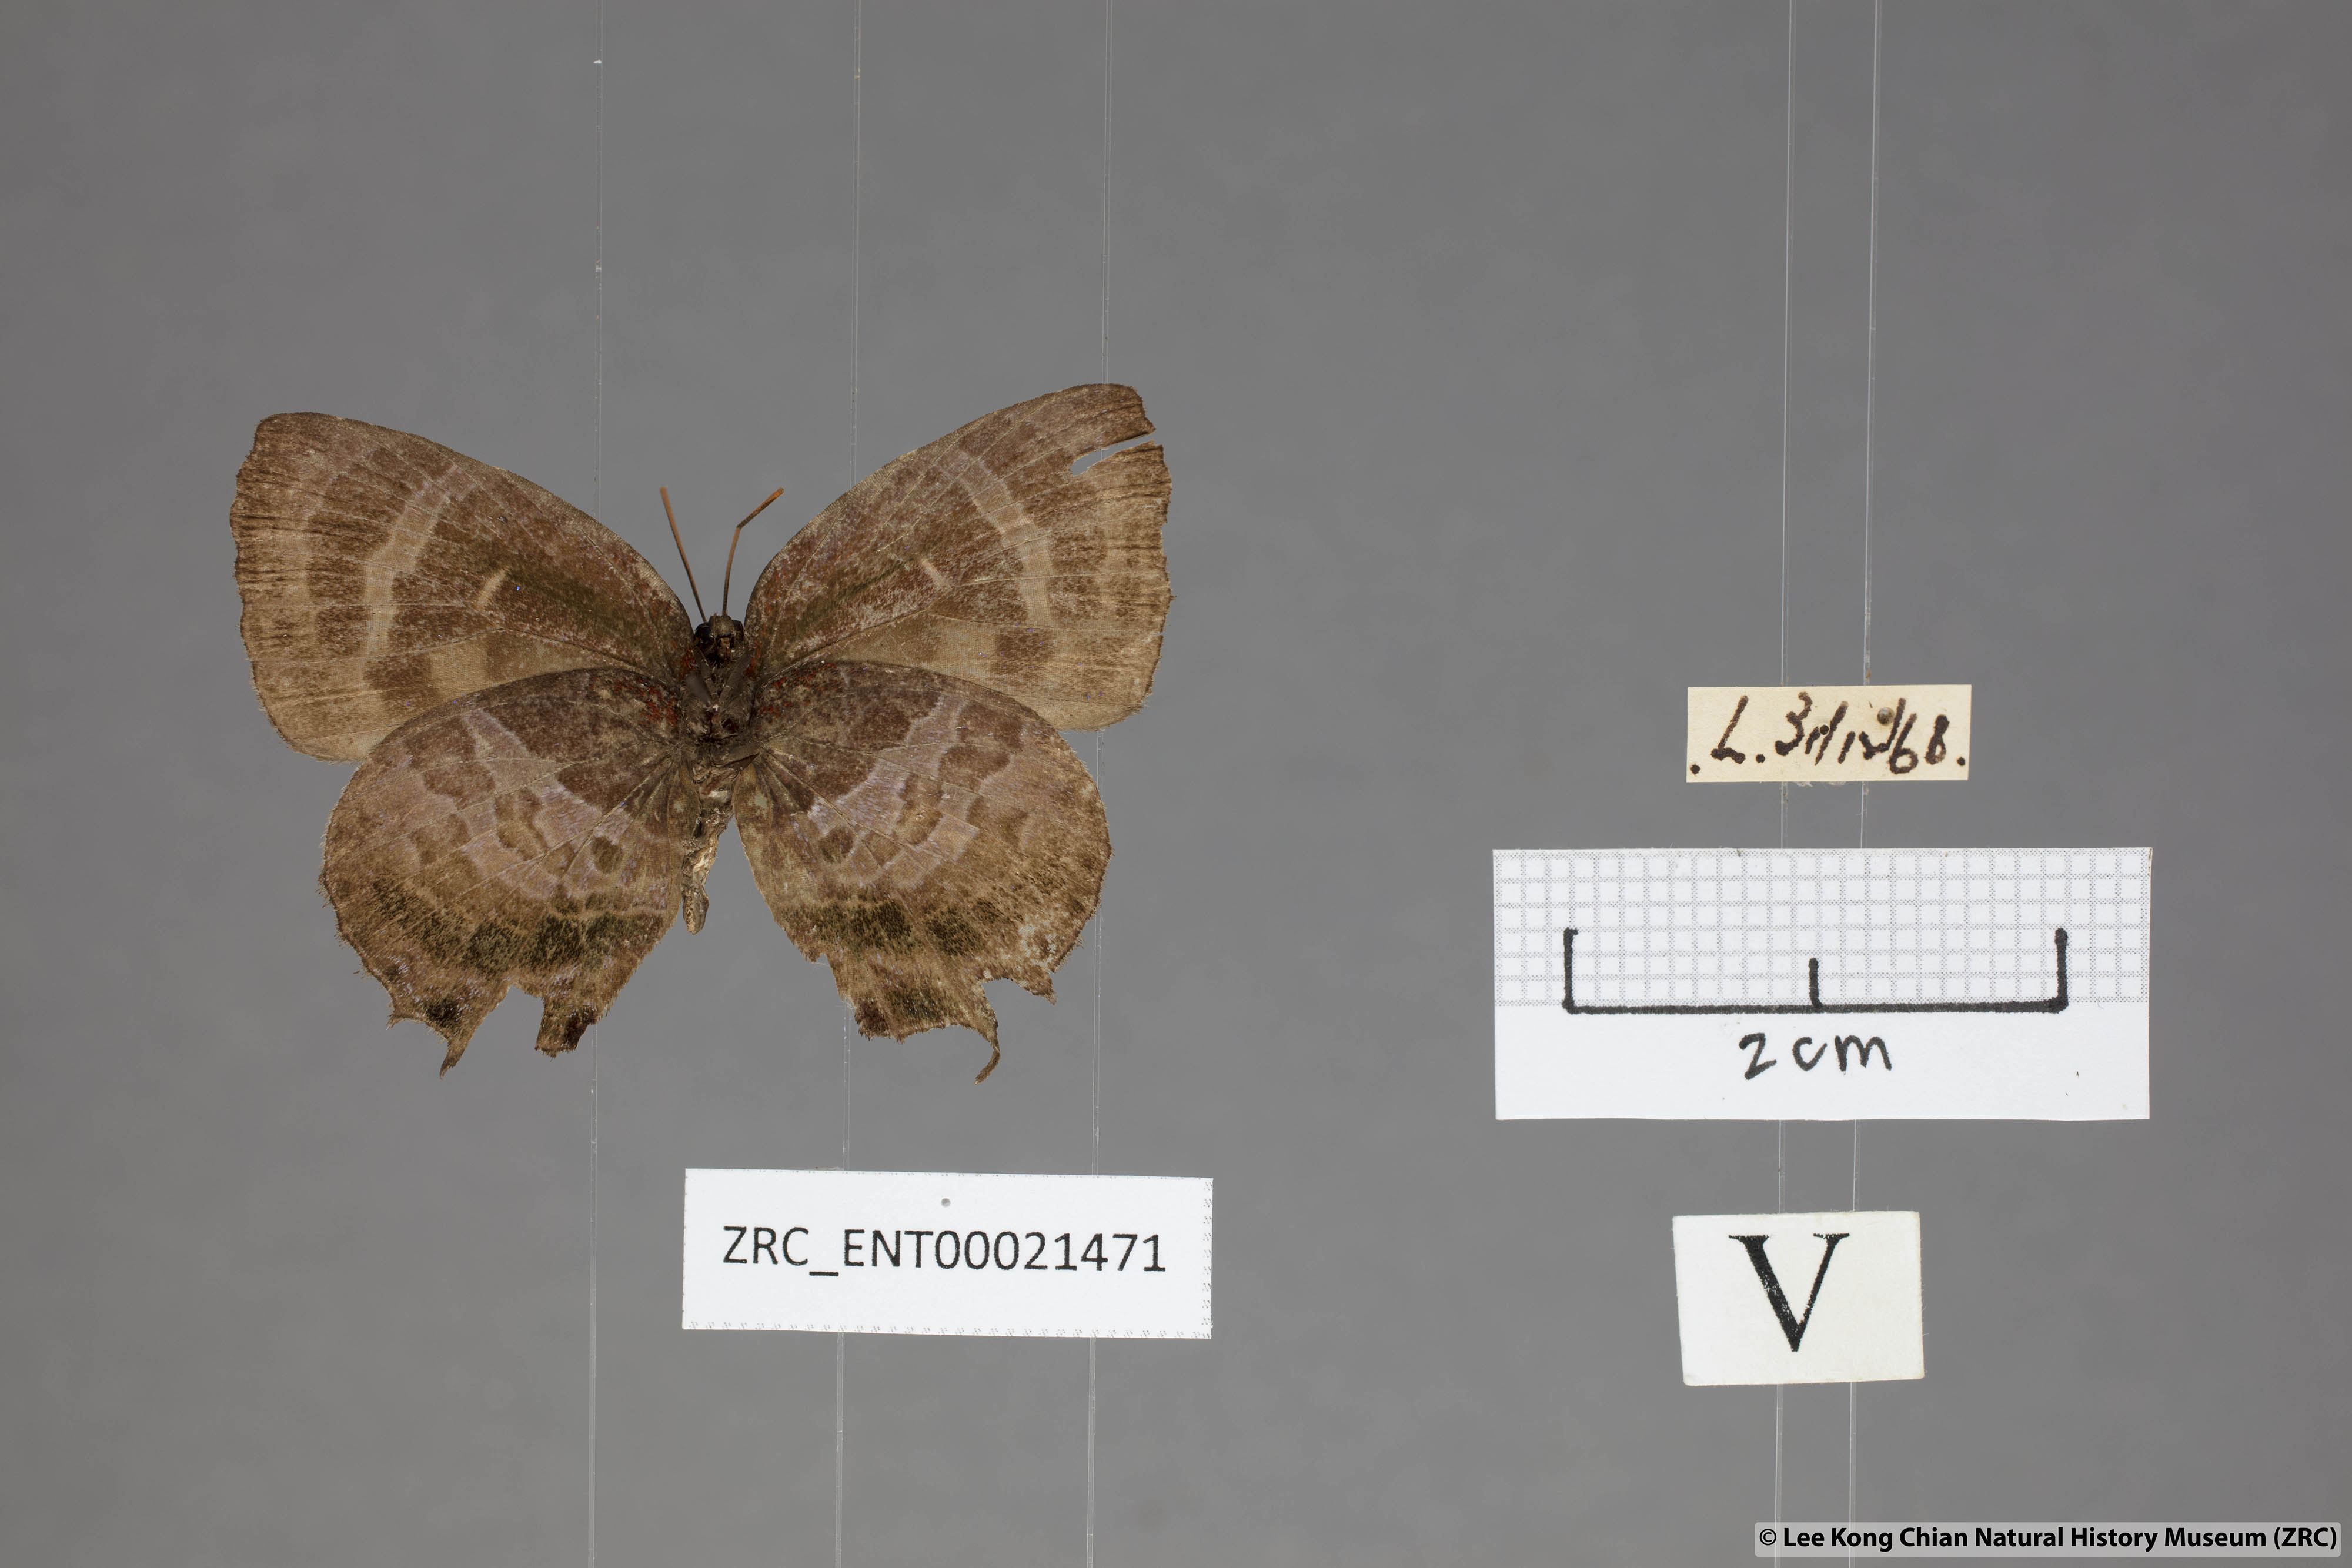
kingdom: Animalia
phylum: Arthropoda
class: Insecta
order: Lepidoptera
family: Lycaenidae
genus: Flos
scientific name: Flos apidanus
